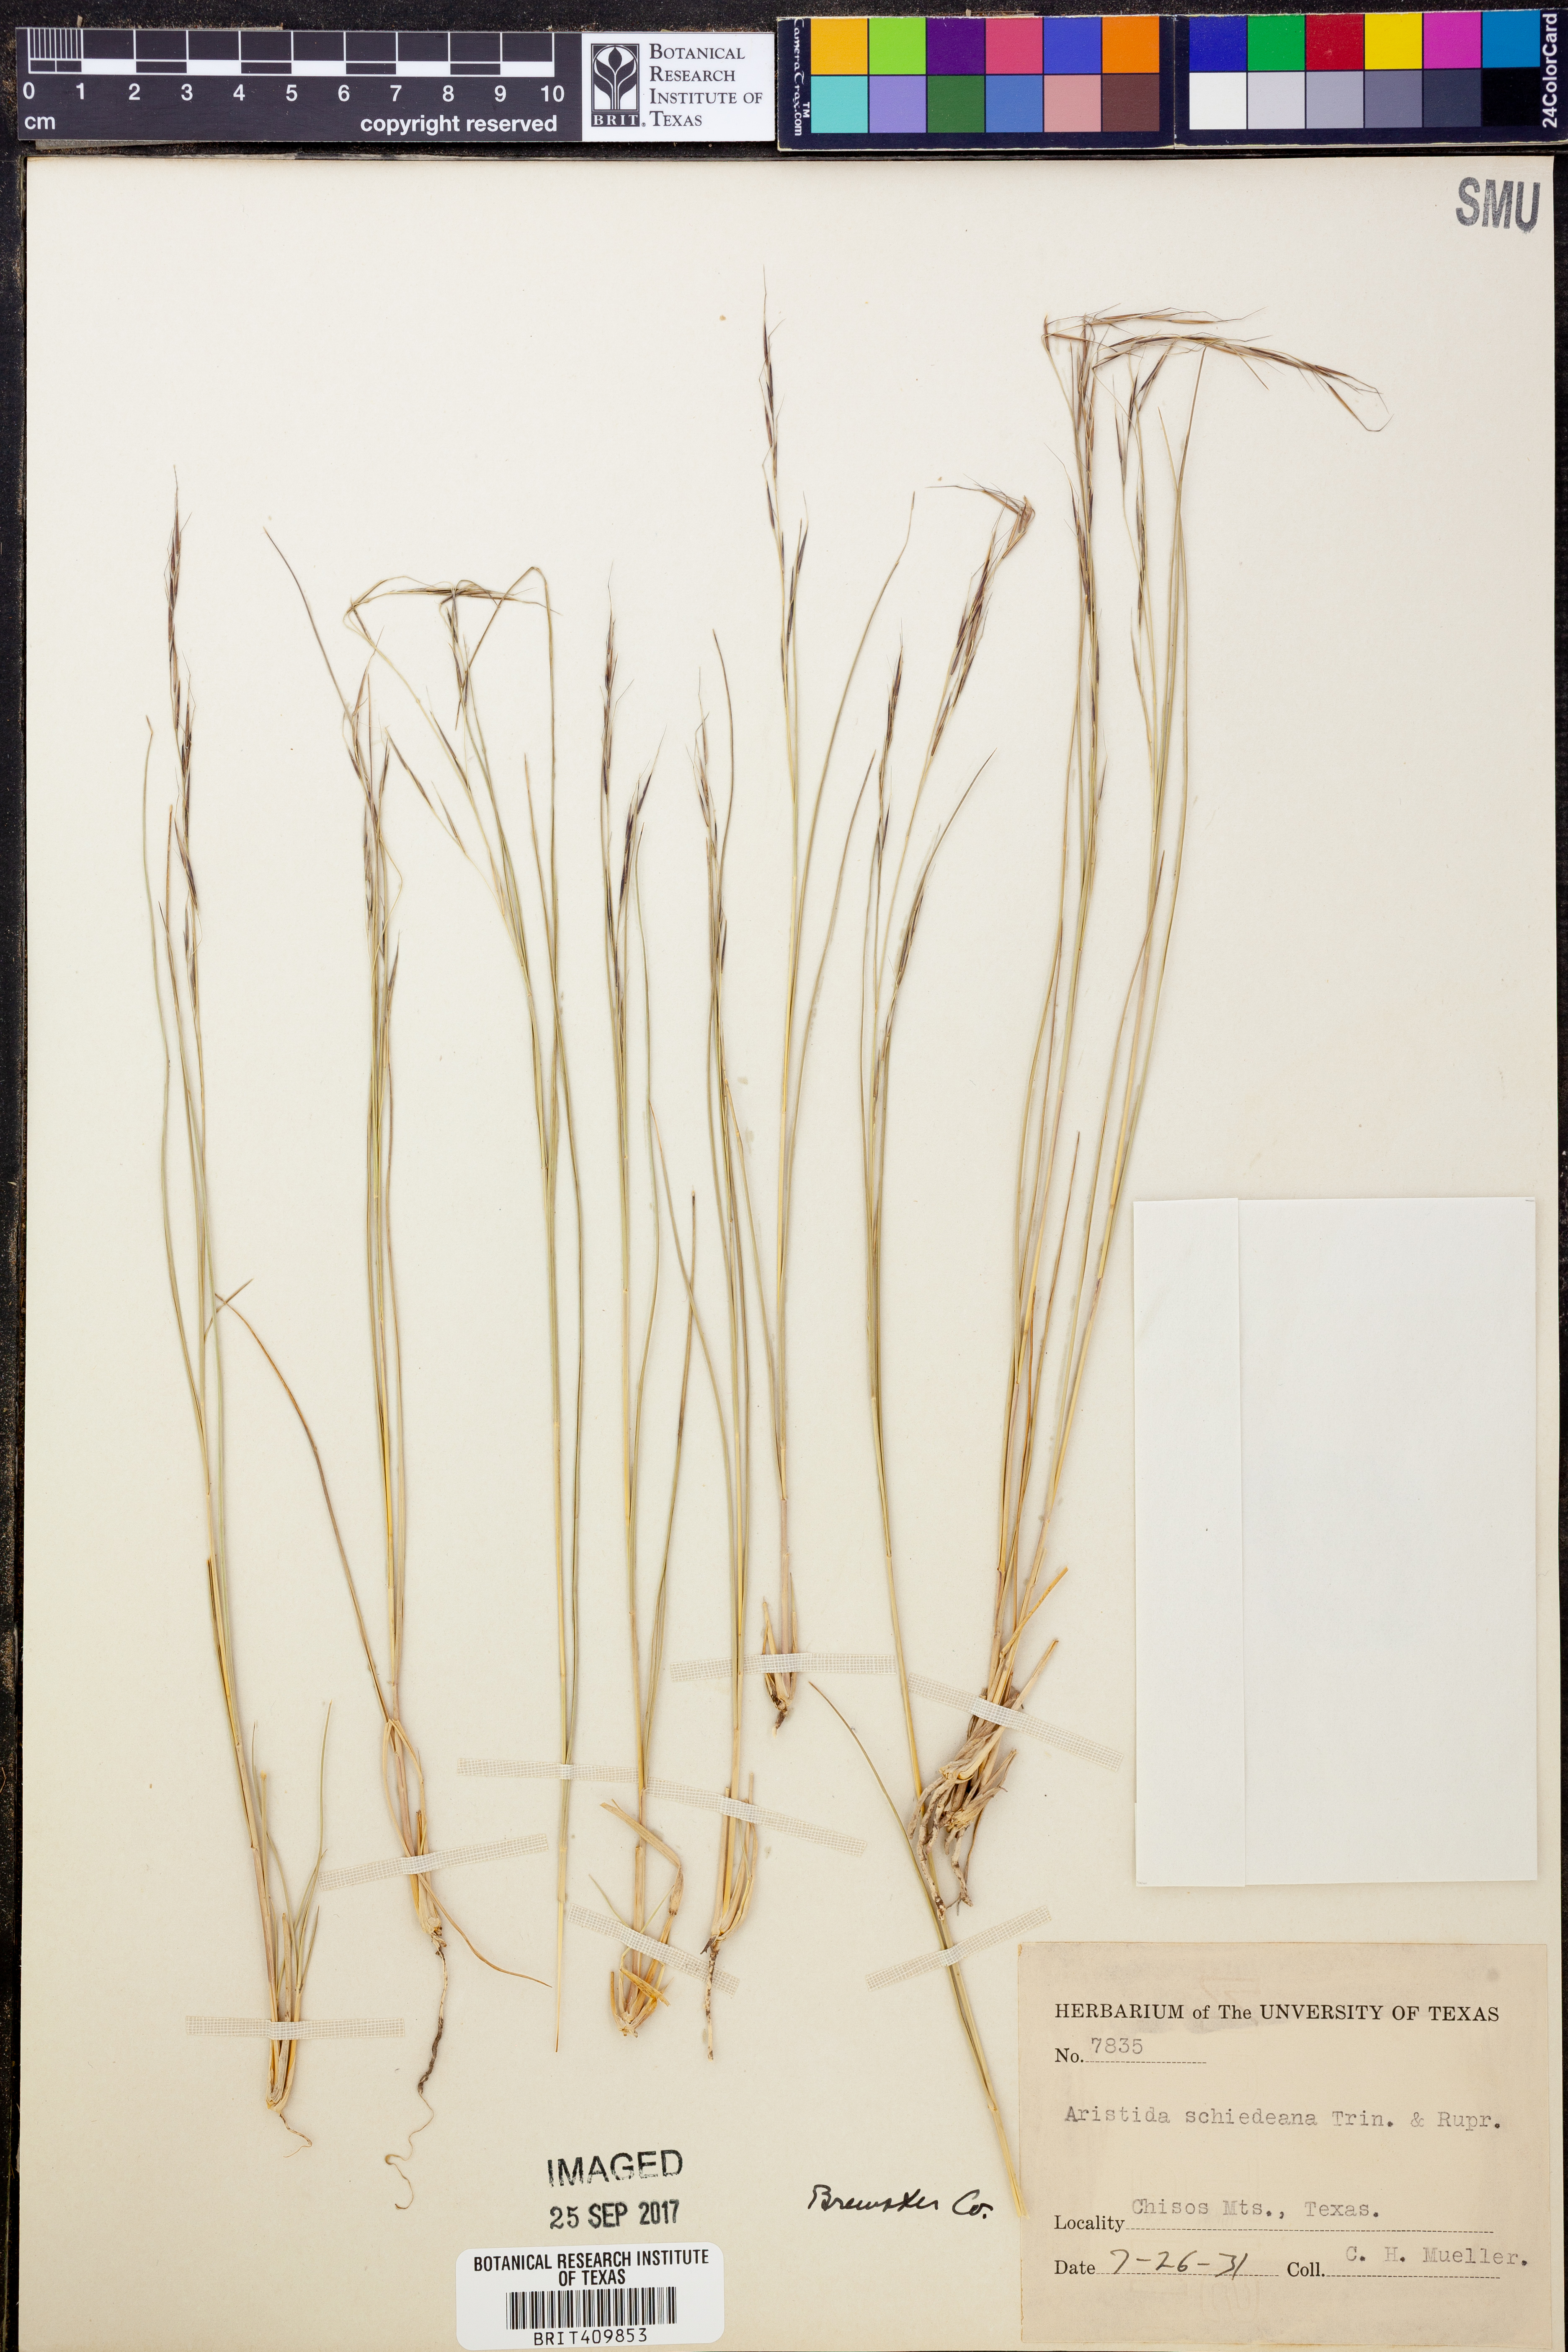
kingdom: Plantae
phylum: Tracheophyta
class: Liliopsida
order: Poales
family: Poaceae
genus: Aristida
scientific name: Aristida schiedeana
